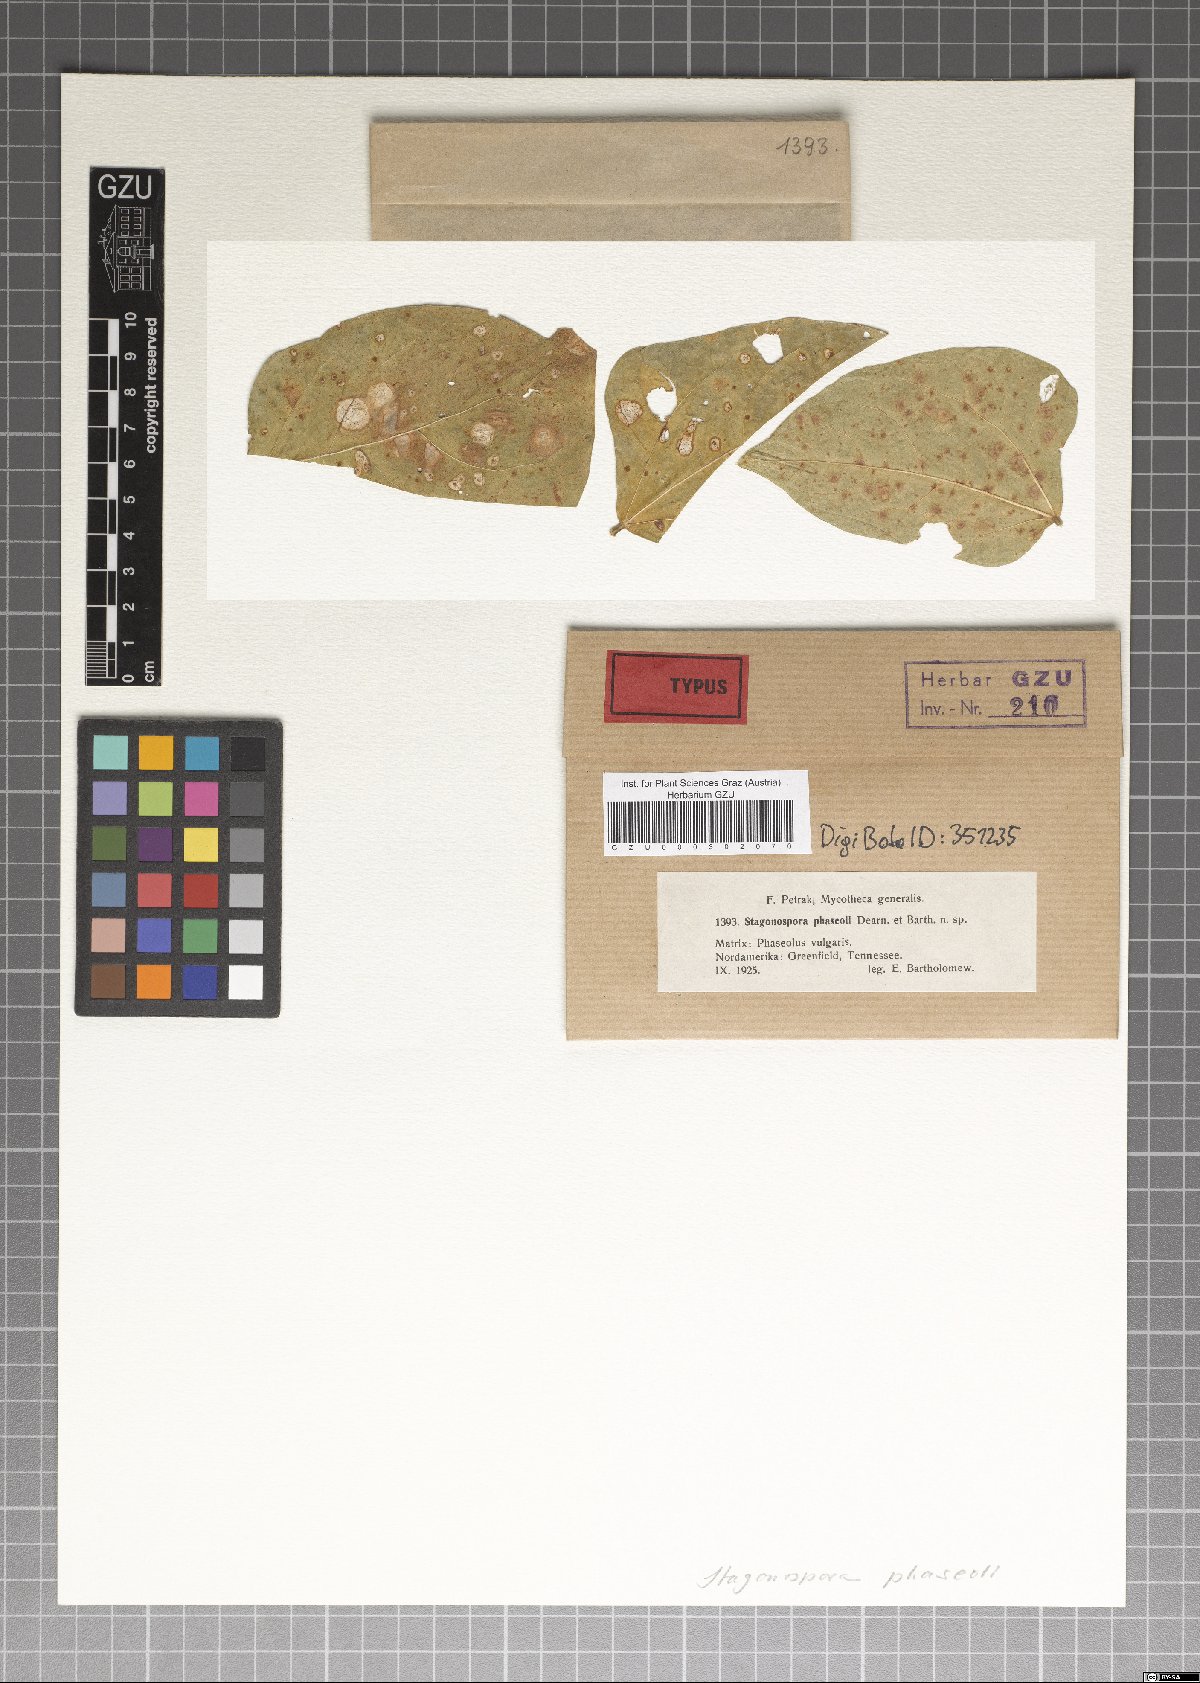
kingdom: Fungi
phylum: Ascomycota
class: Dothideomycetes
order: Pleosporales
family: Phaeosphaeriaceae
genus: Stagonospora
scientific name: Stagonospora phaseoli
